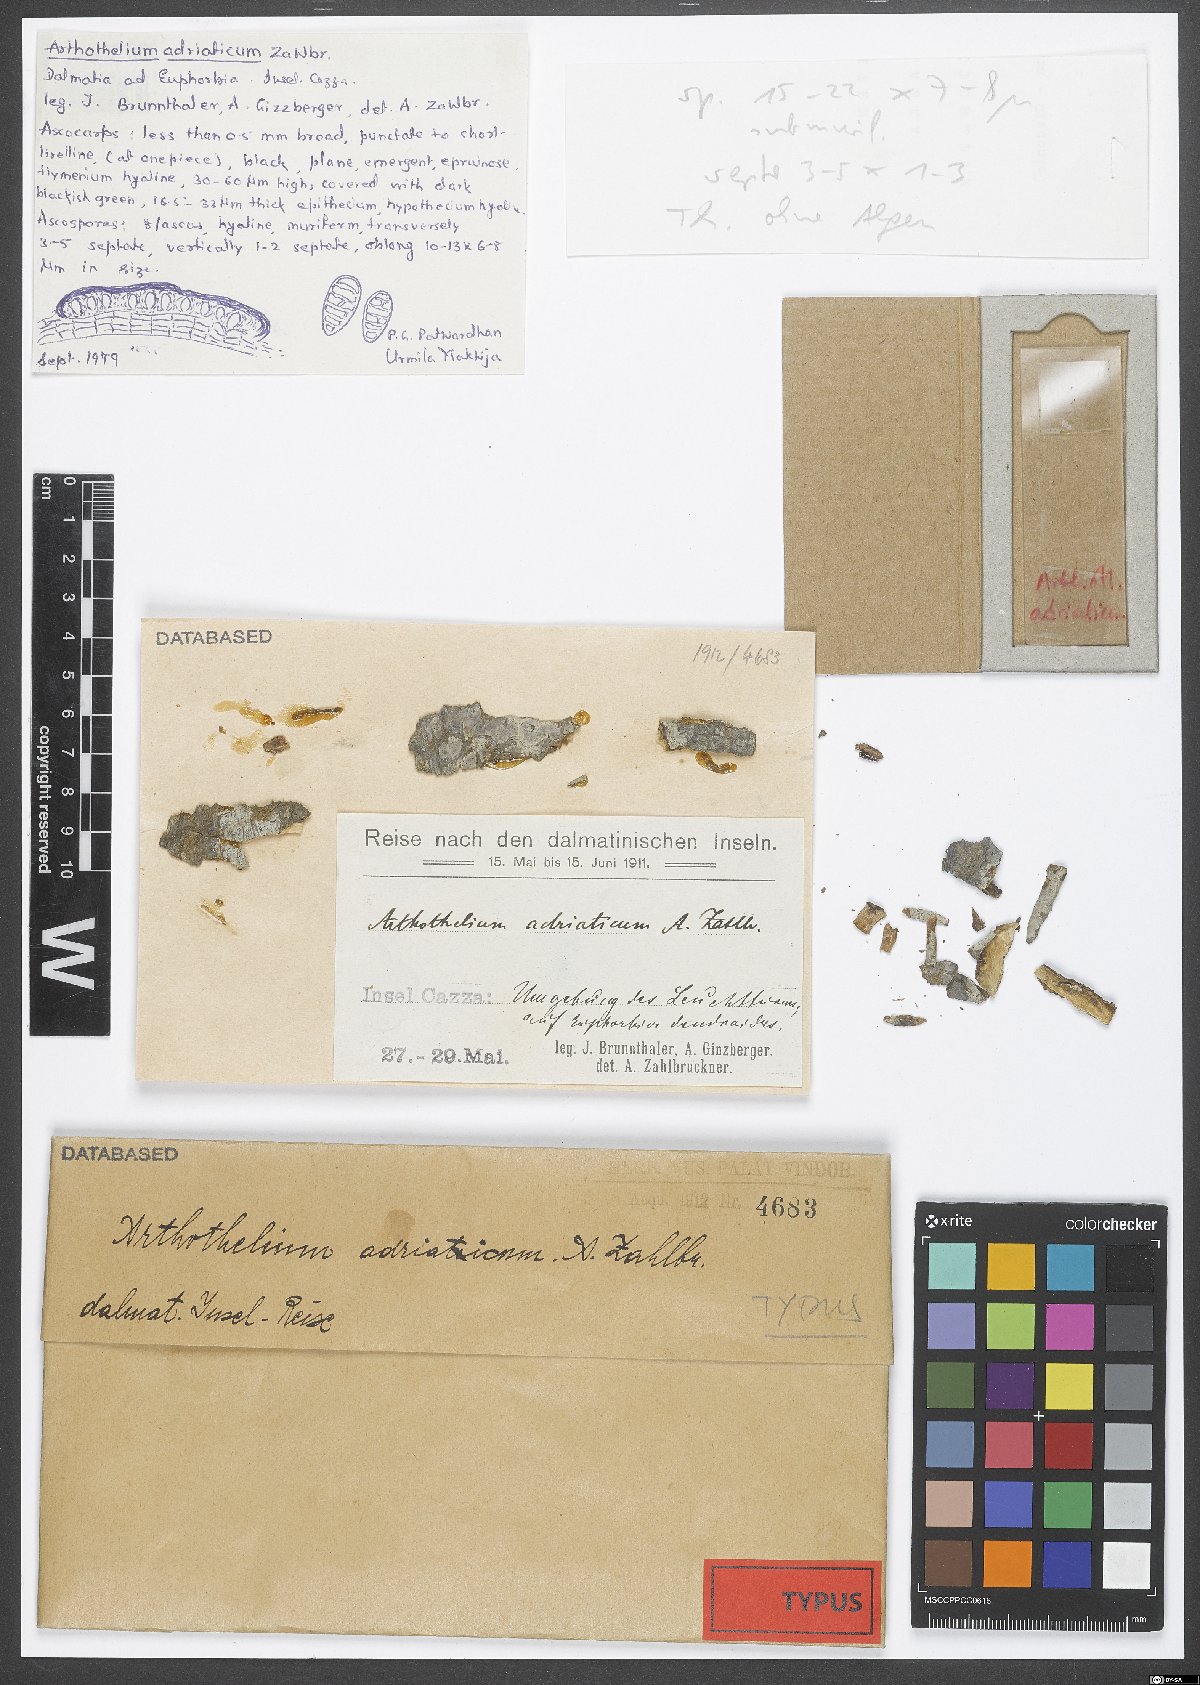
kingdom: Fungi
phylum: Ascomycota
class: Arthoniomycetes
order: Arthoniales
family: Arthoniaceae
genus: Arthothelium
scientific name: Arthothelium
